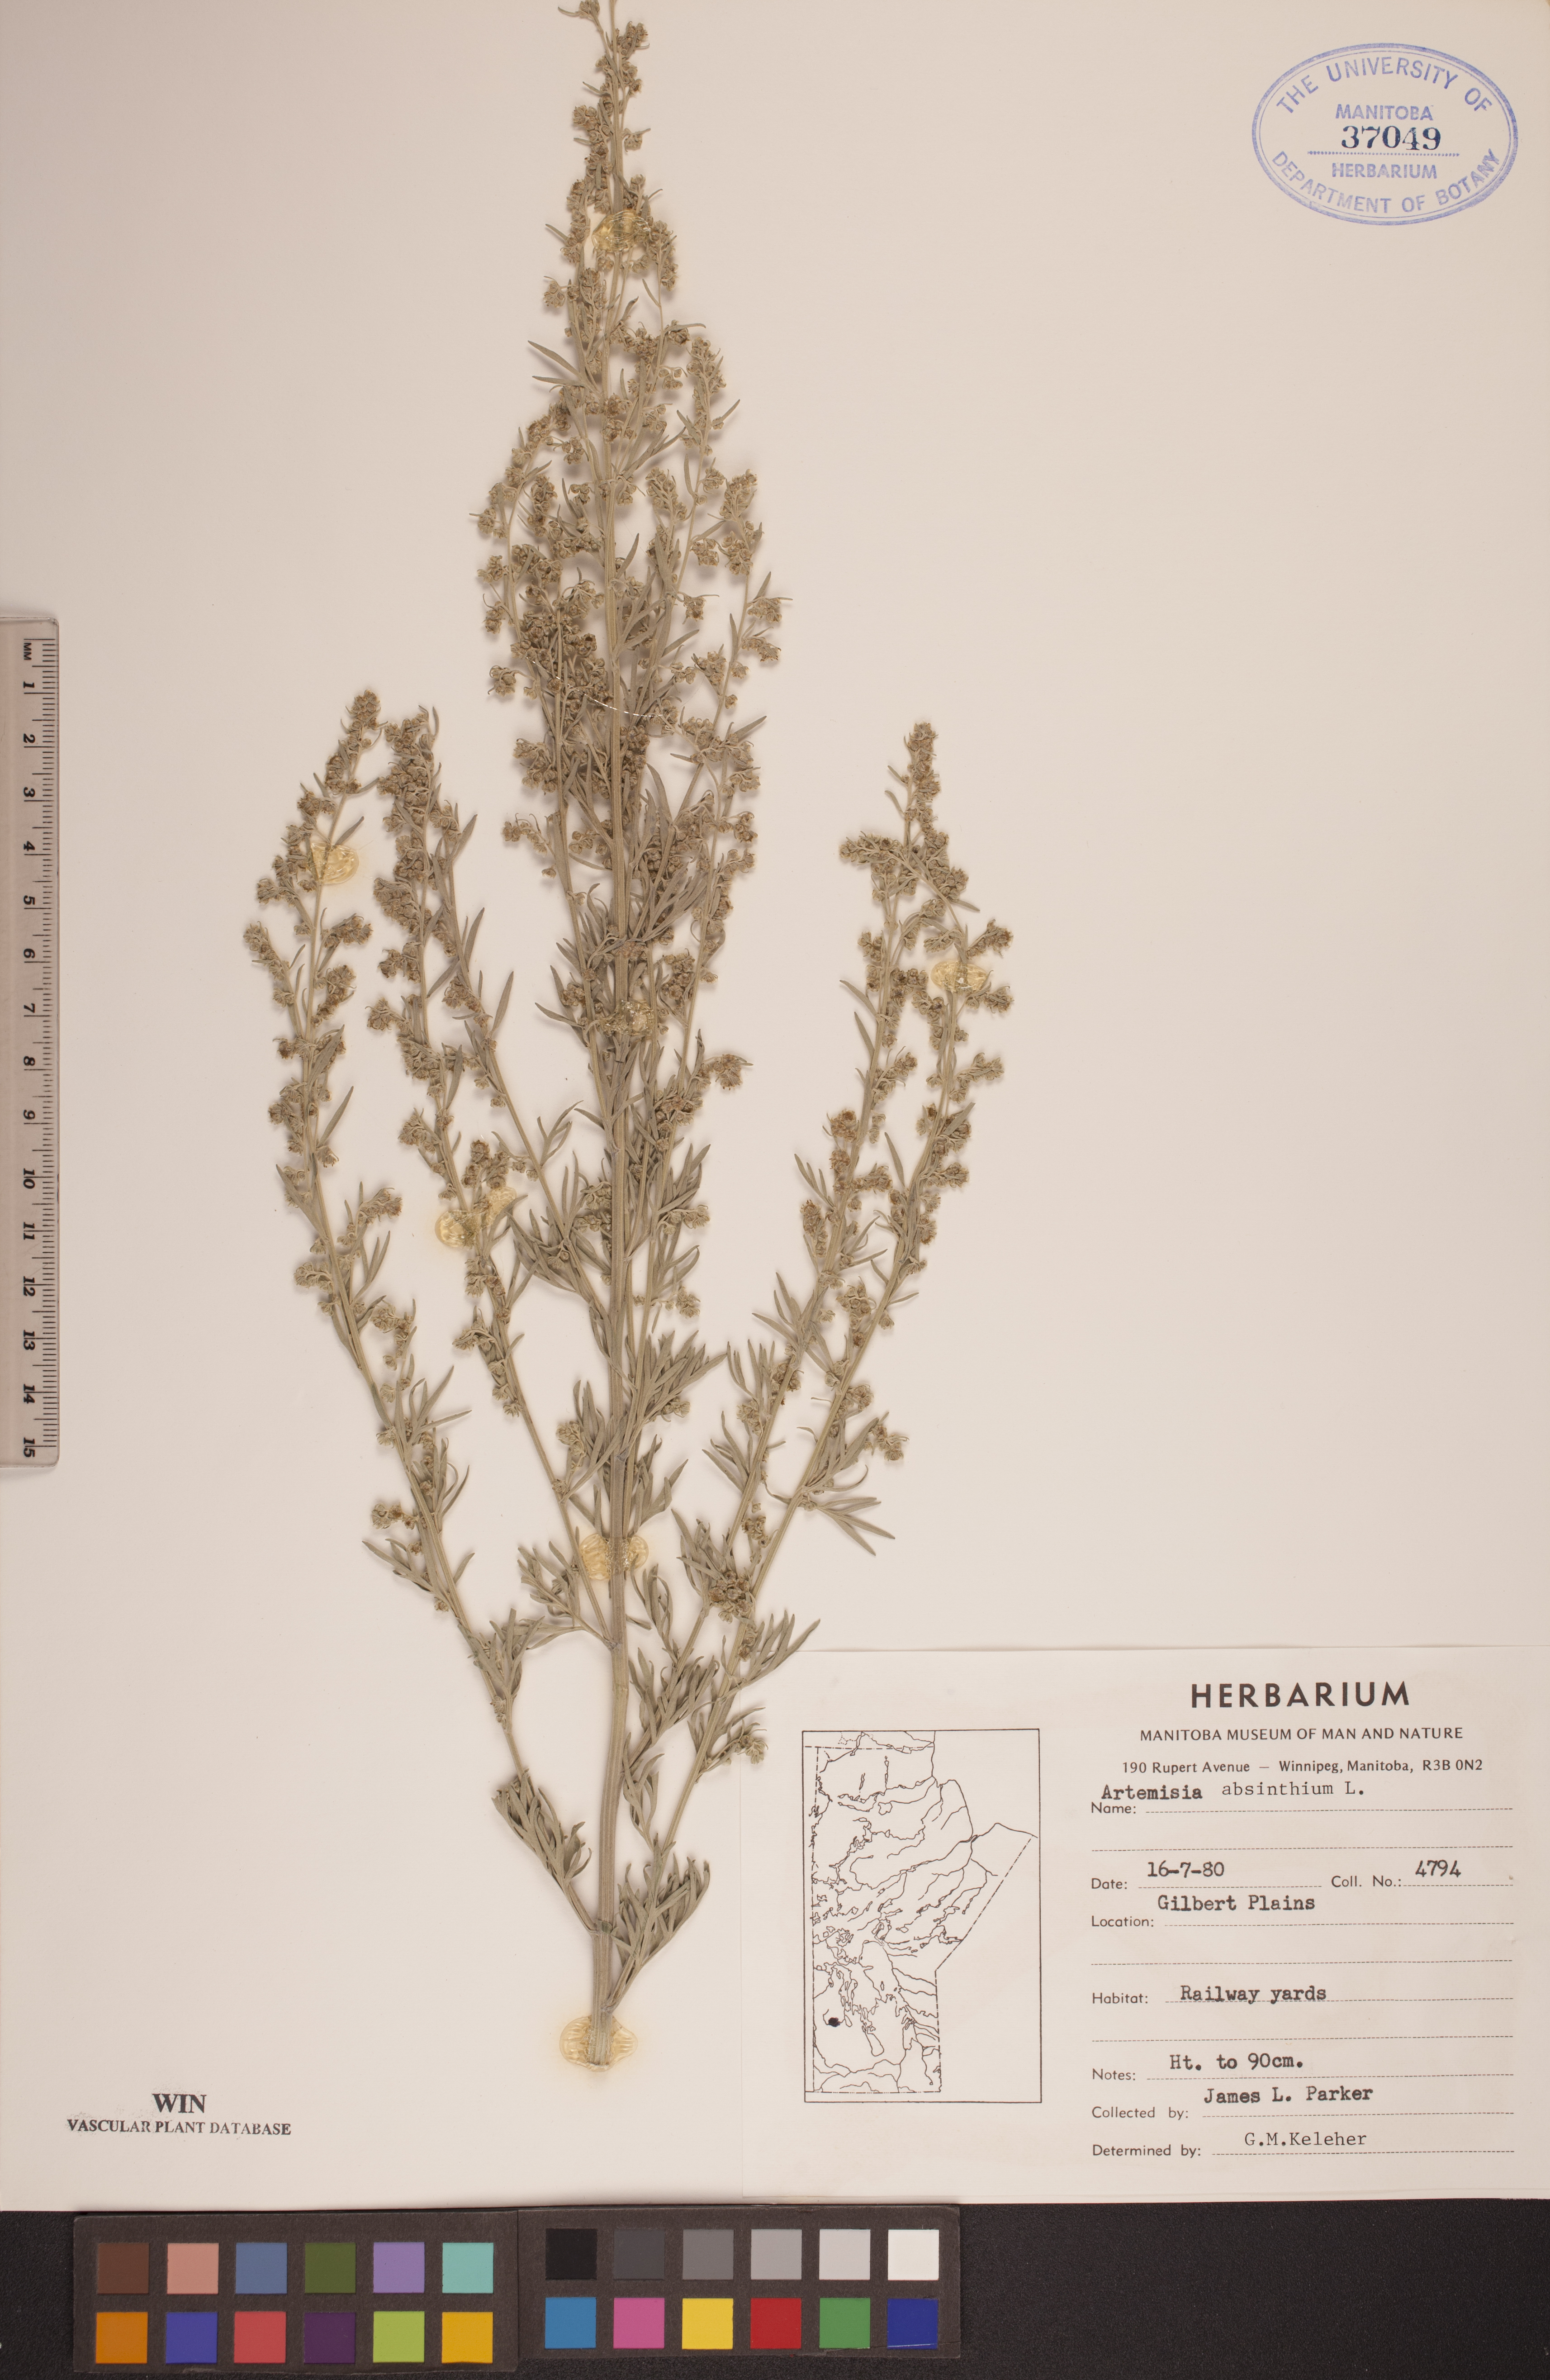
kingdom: Plantae
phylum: Tracheophyta
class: Magnoliopsida
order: Asterales
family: Asteraceae
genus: Artemisia
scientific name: Artemisia absinthium
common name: Wormwood
